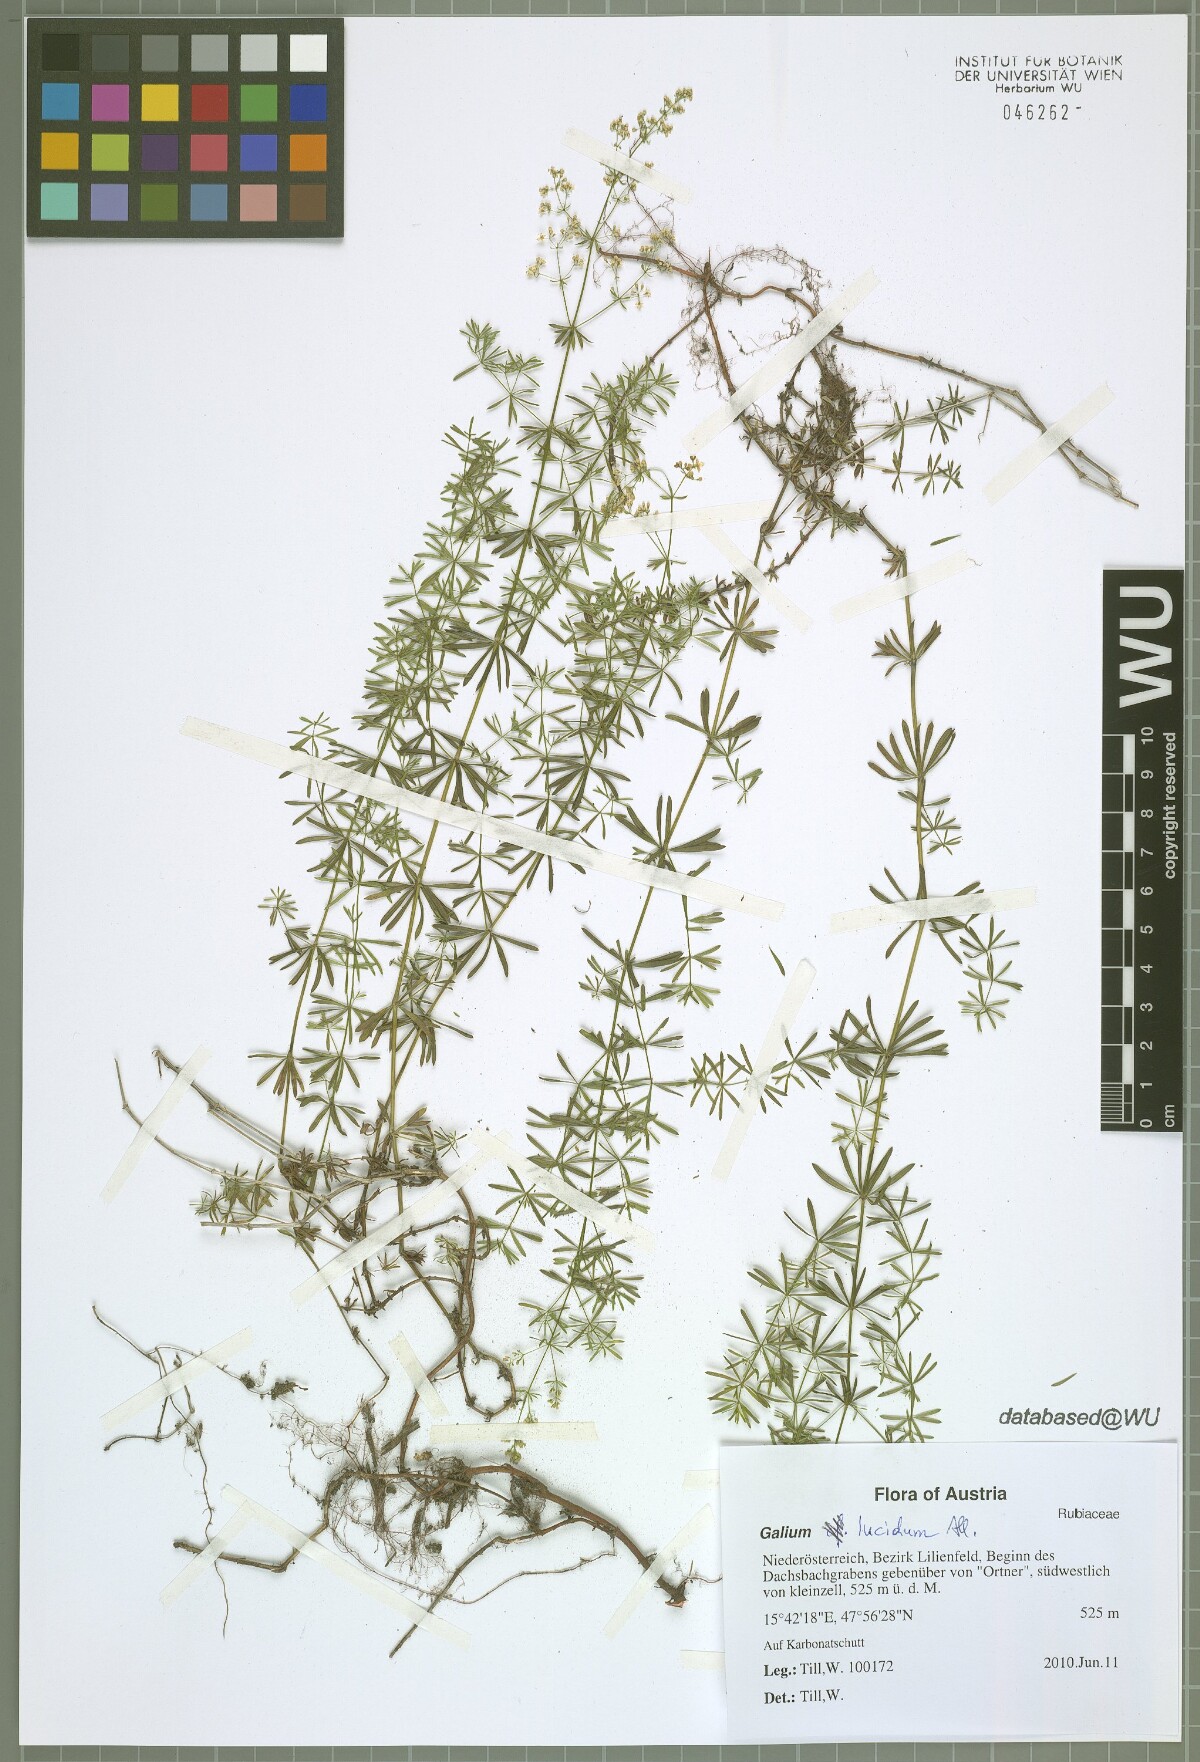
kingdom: Plantae
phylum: Tracheophyta
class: Magnoliopsida
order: Gentianales
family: Rubiaceae
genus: Galium
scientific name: Galium lucidum
